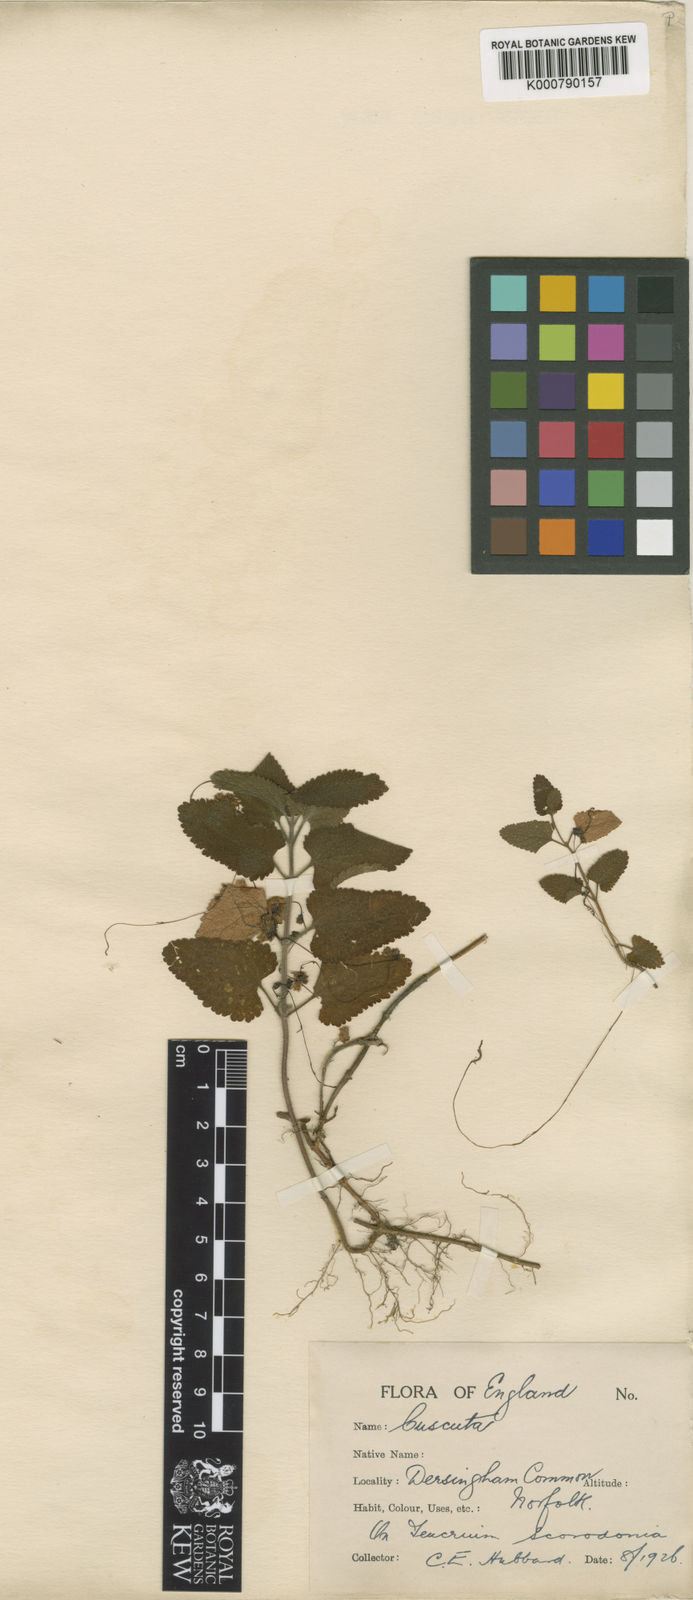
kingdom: Plantae
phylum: Tracheophyta
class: Magnoliopsida
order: Solanales
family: Convolvulaceae
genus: Cuscuta
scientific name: Cuscuta epithymum
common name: Clover dodder
